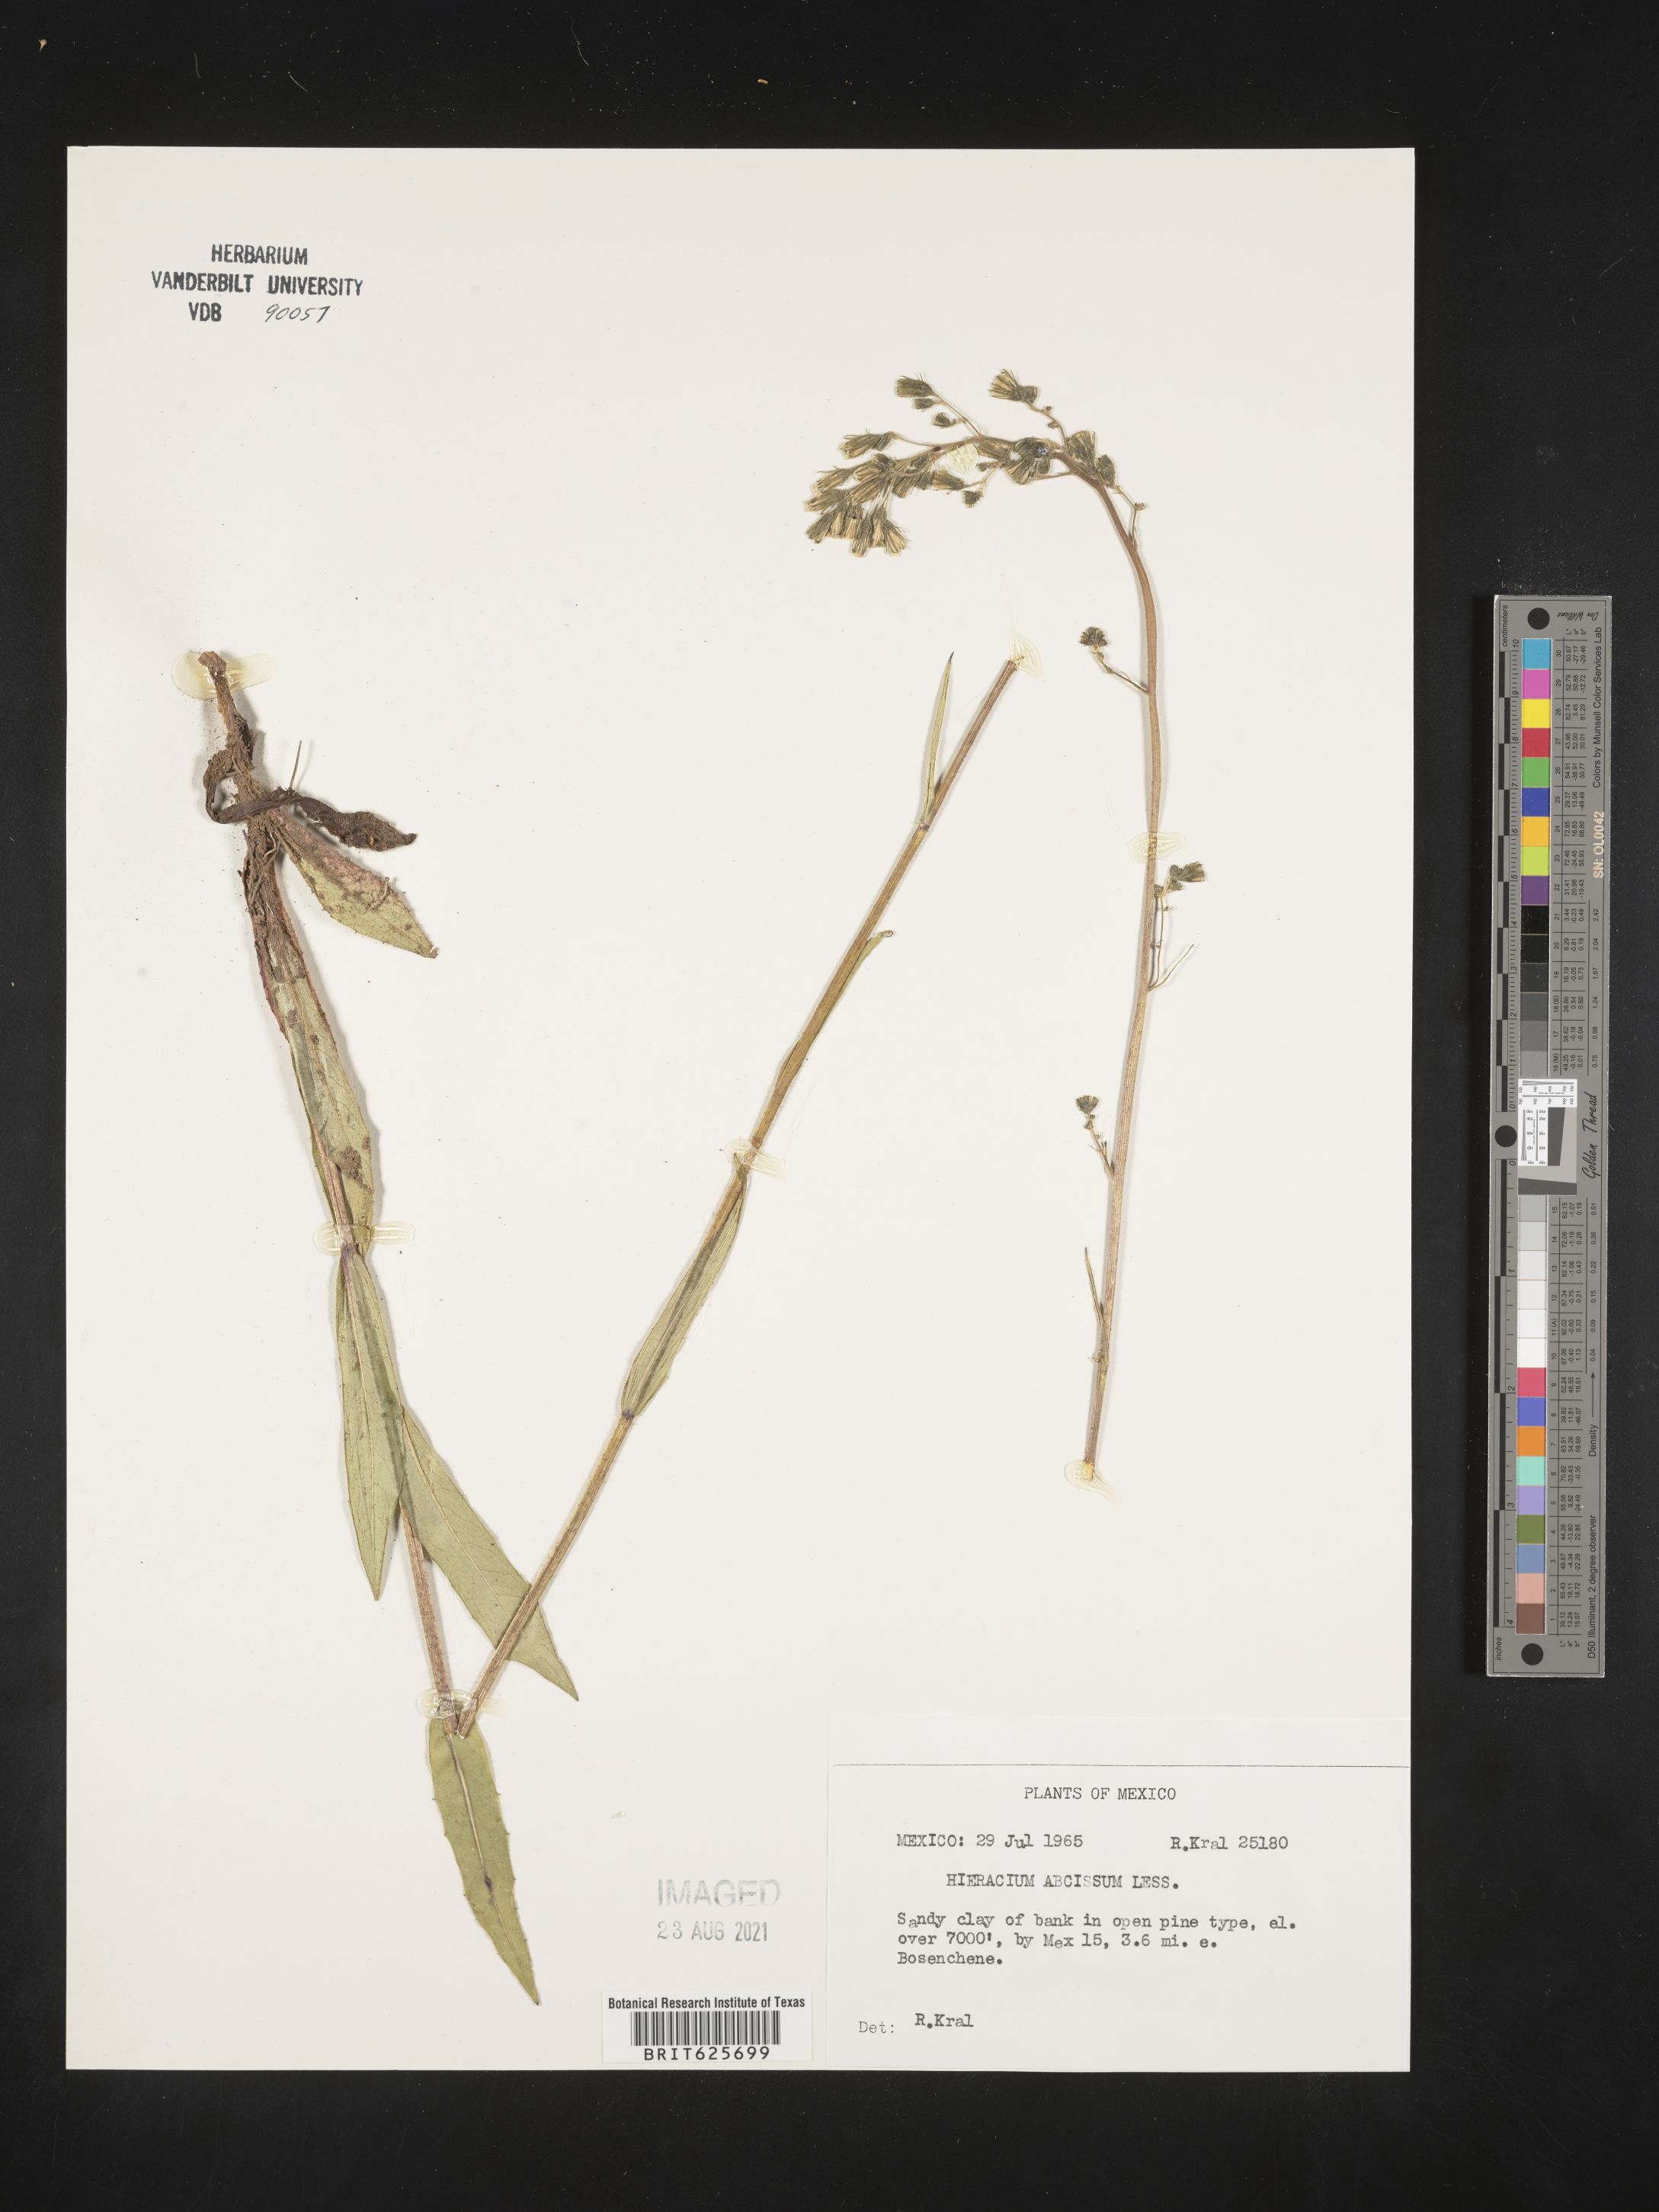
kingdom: Plantae
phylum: Tracheophyta
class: Magnoliopsida
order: Asterales
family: Asteraceae
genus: Hieracium
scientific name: Hieracium
